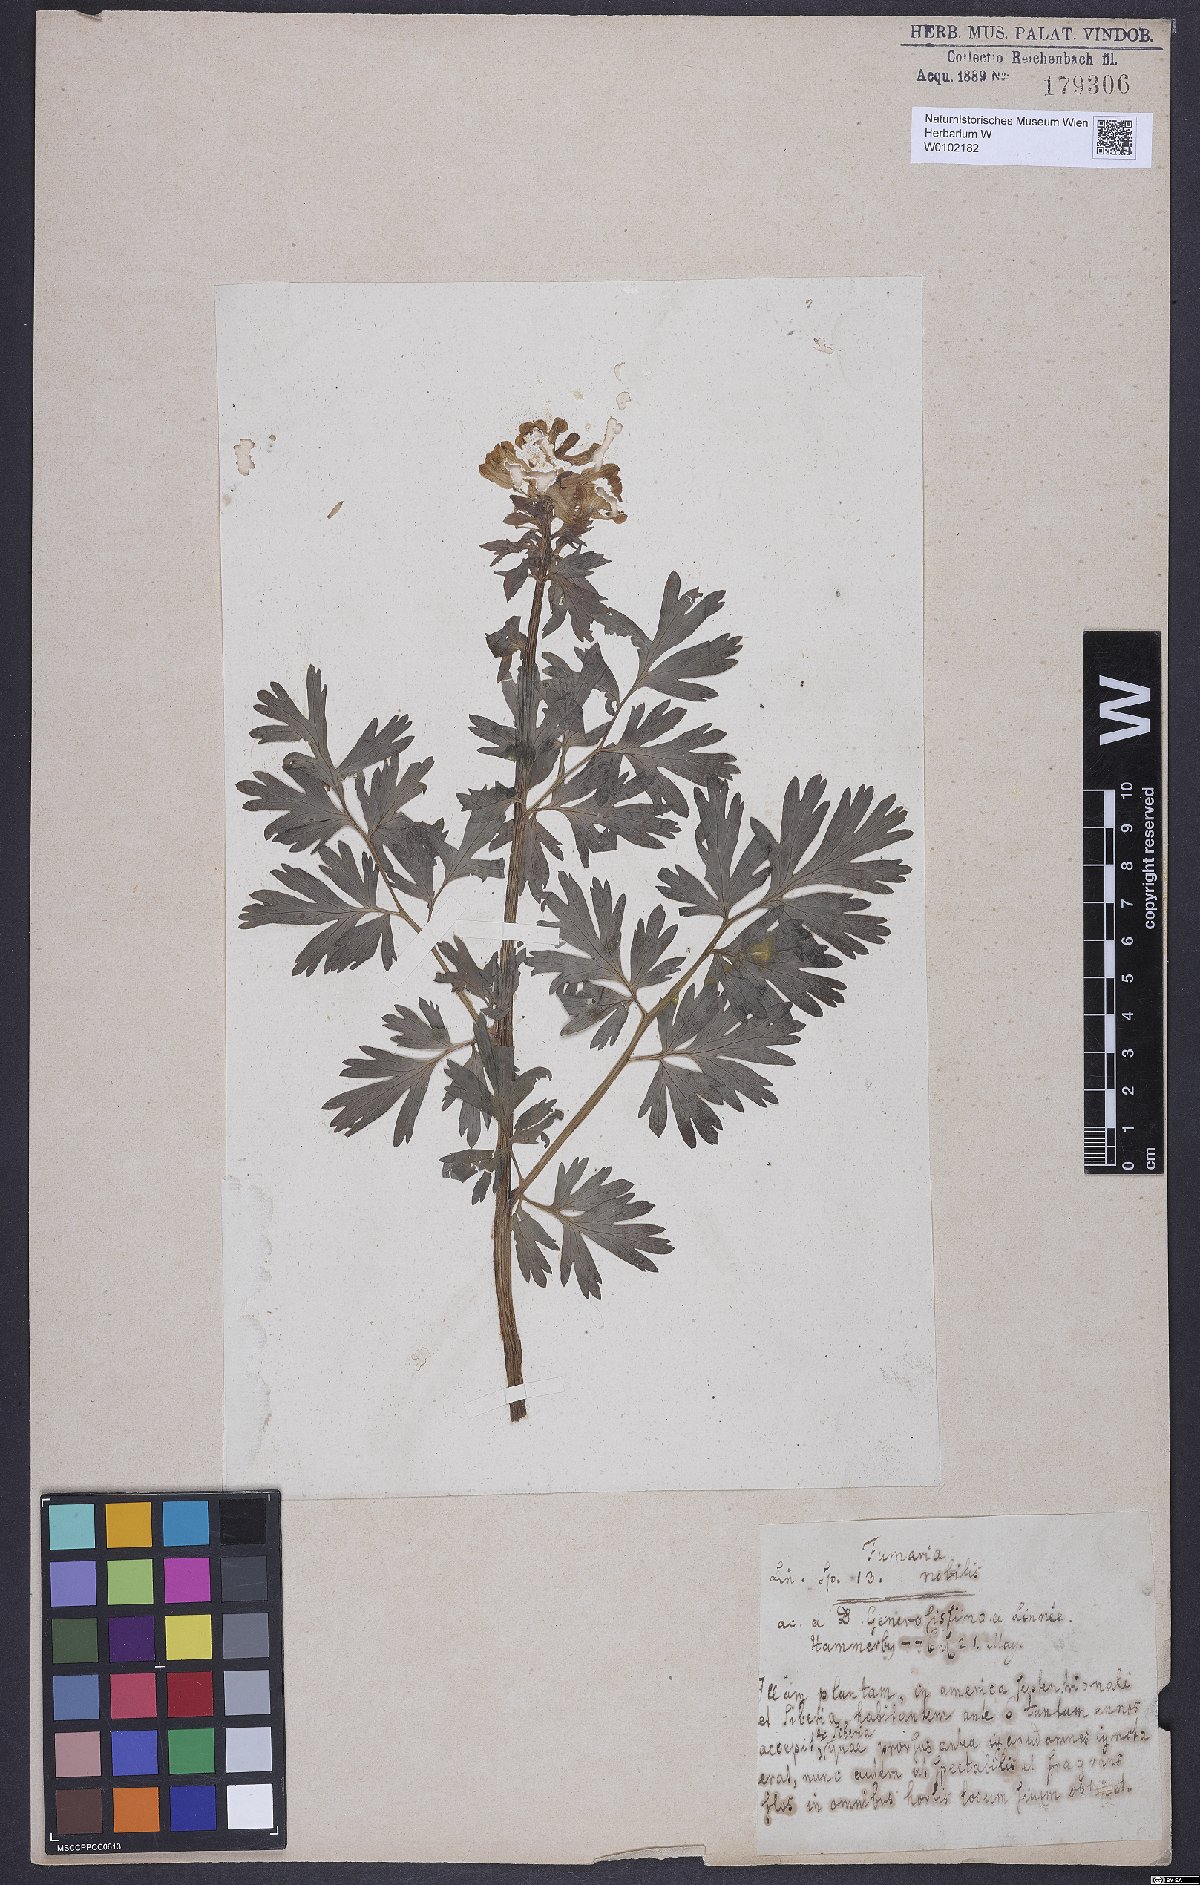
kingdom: Plantae
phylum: Tracheophyta
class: Magnoliopsida
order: Ranunculales
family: Papaveraceae
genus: Corydalis
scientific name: Corydalis nobilis
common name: Siberian corydalis
